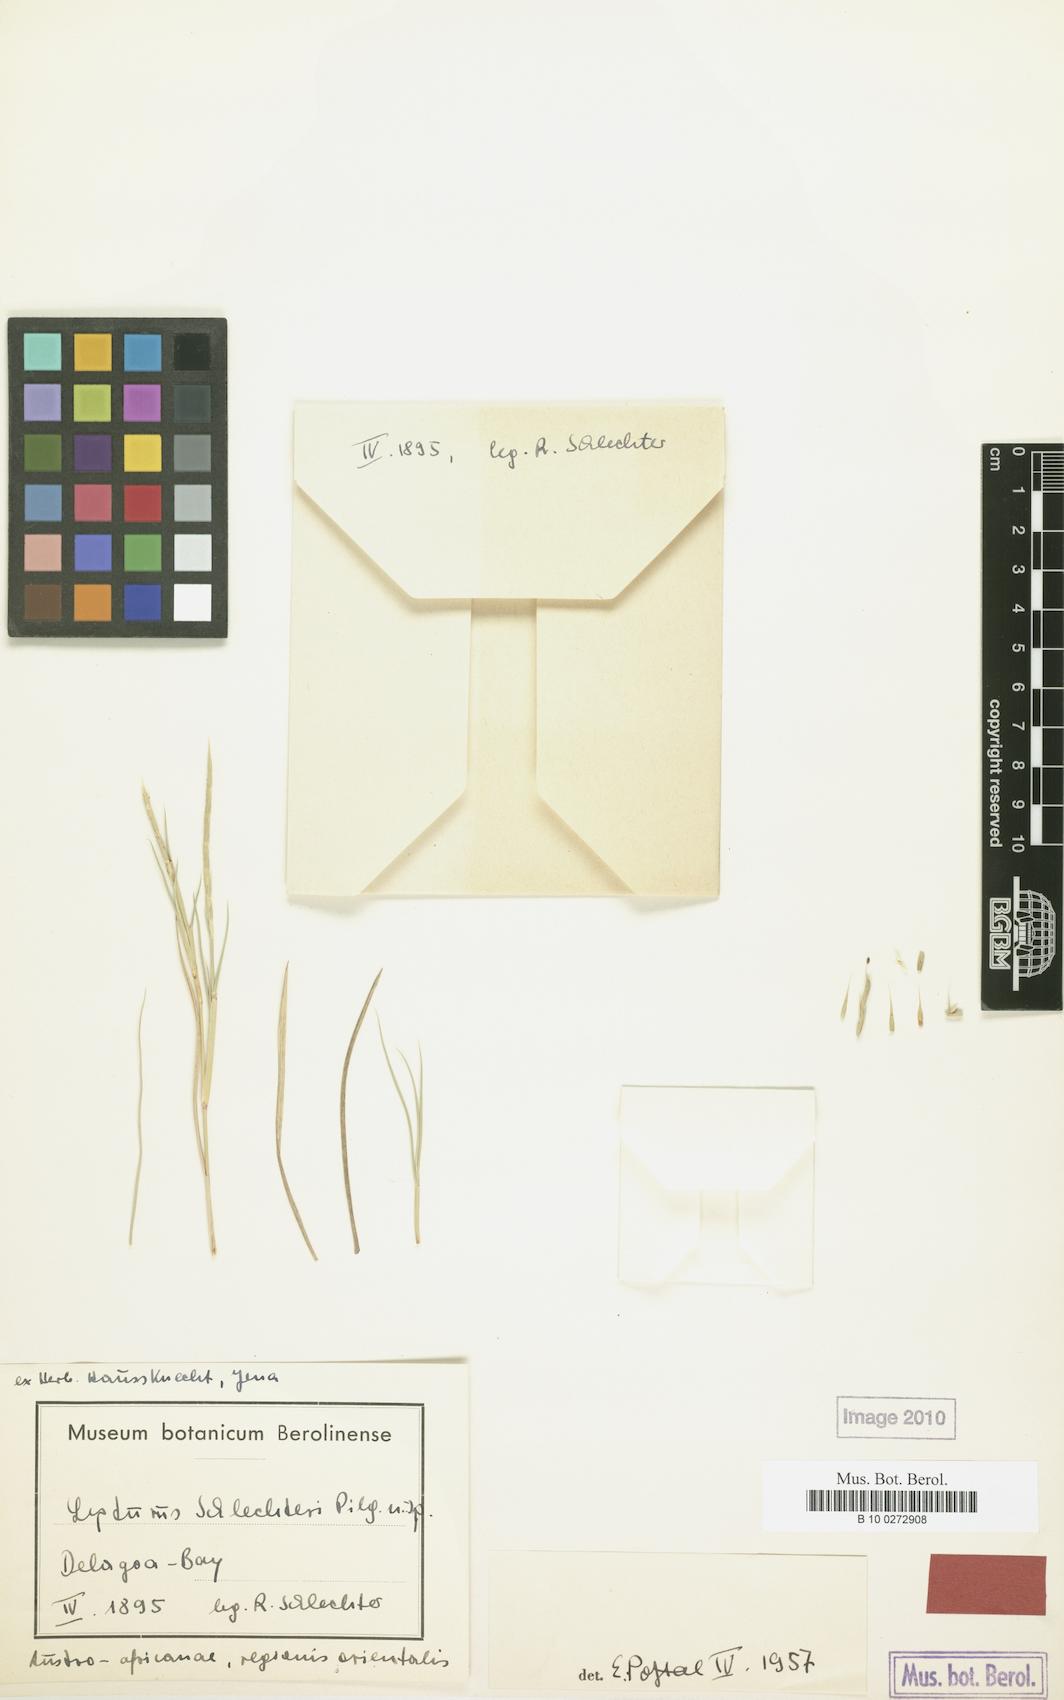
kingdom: Plantae
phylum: Tracheophyta
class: Liliopsida
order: Poales
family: Poaceae
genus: Lepturus
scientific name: Lepturus
